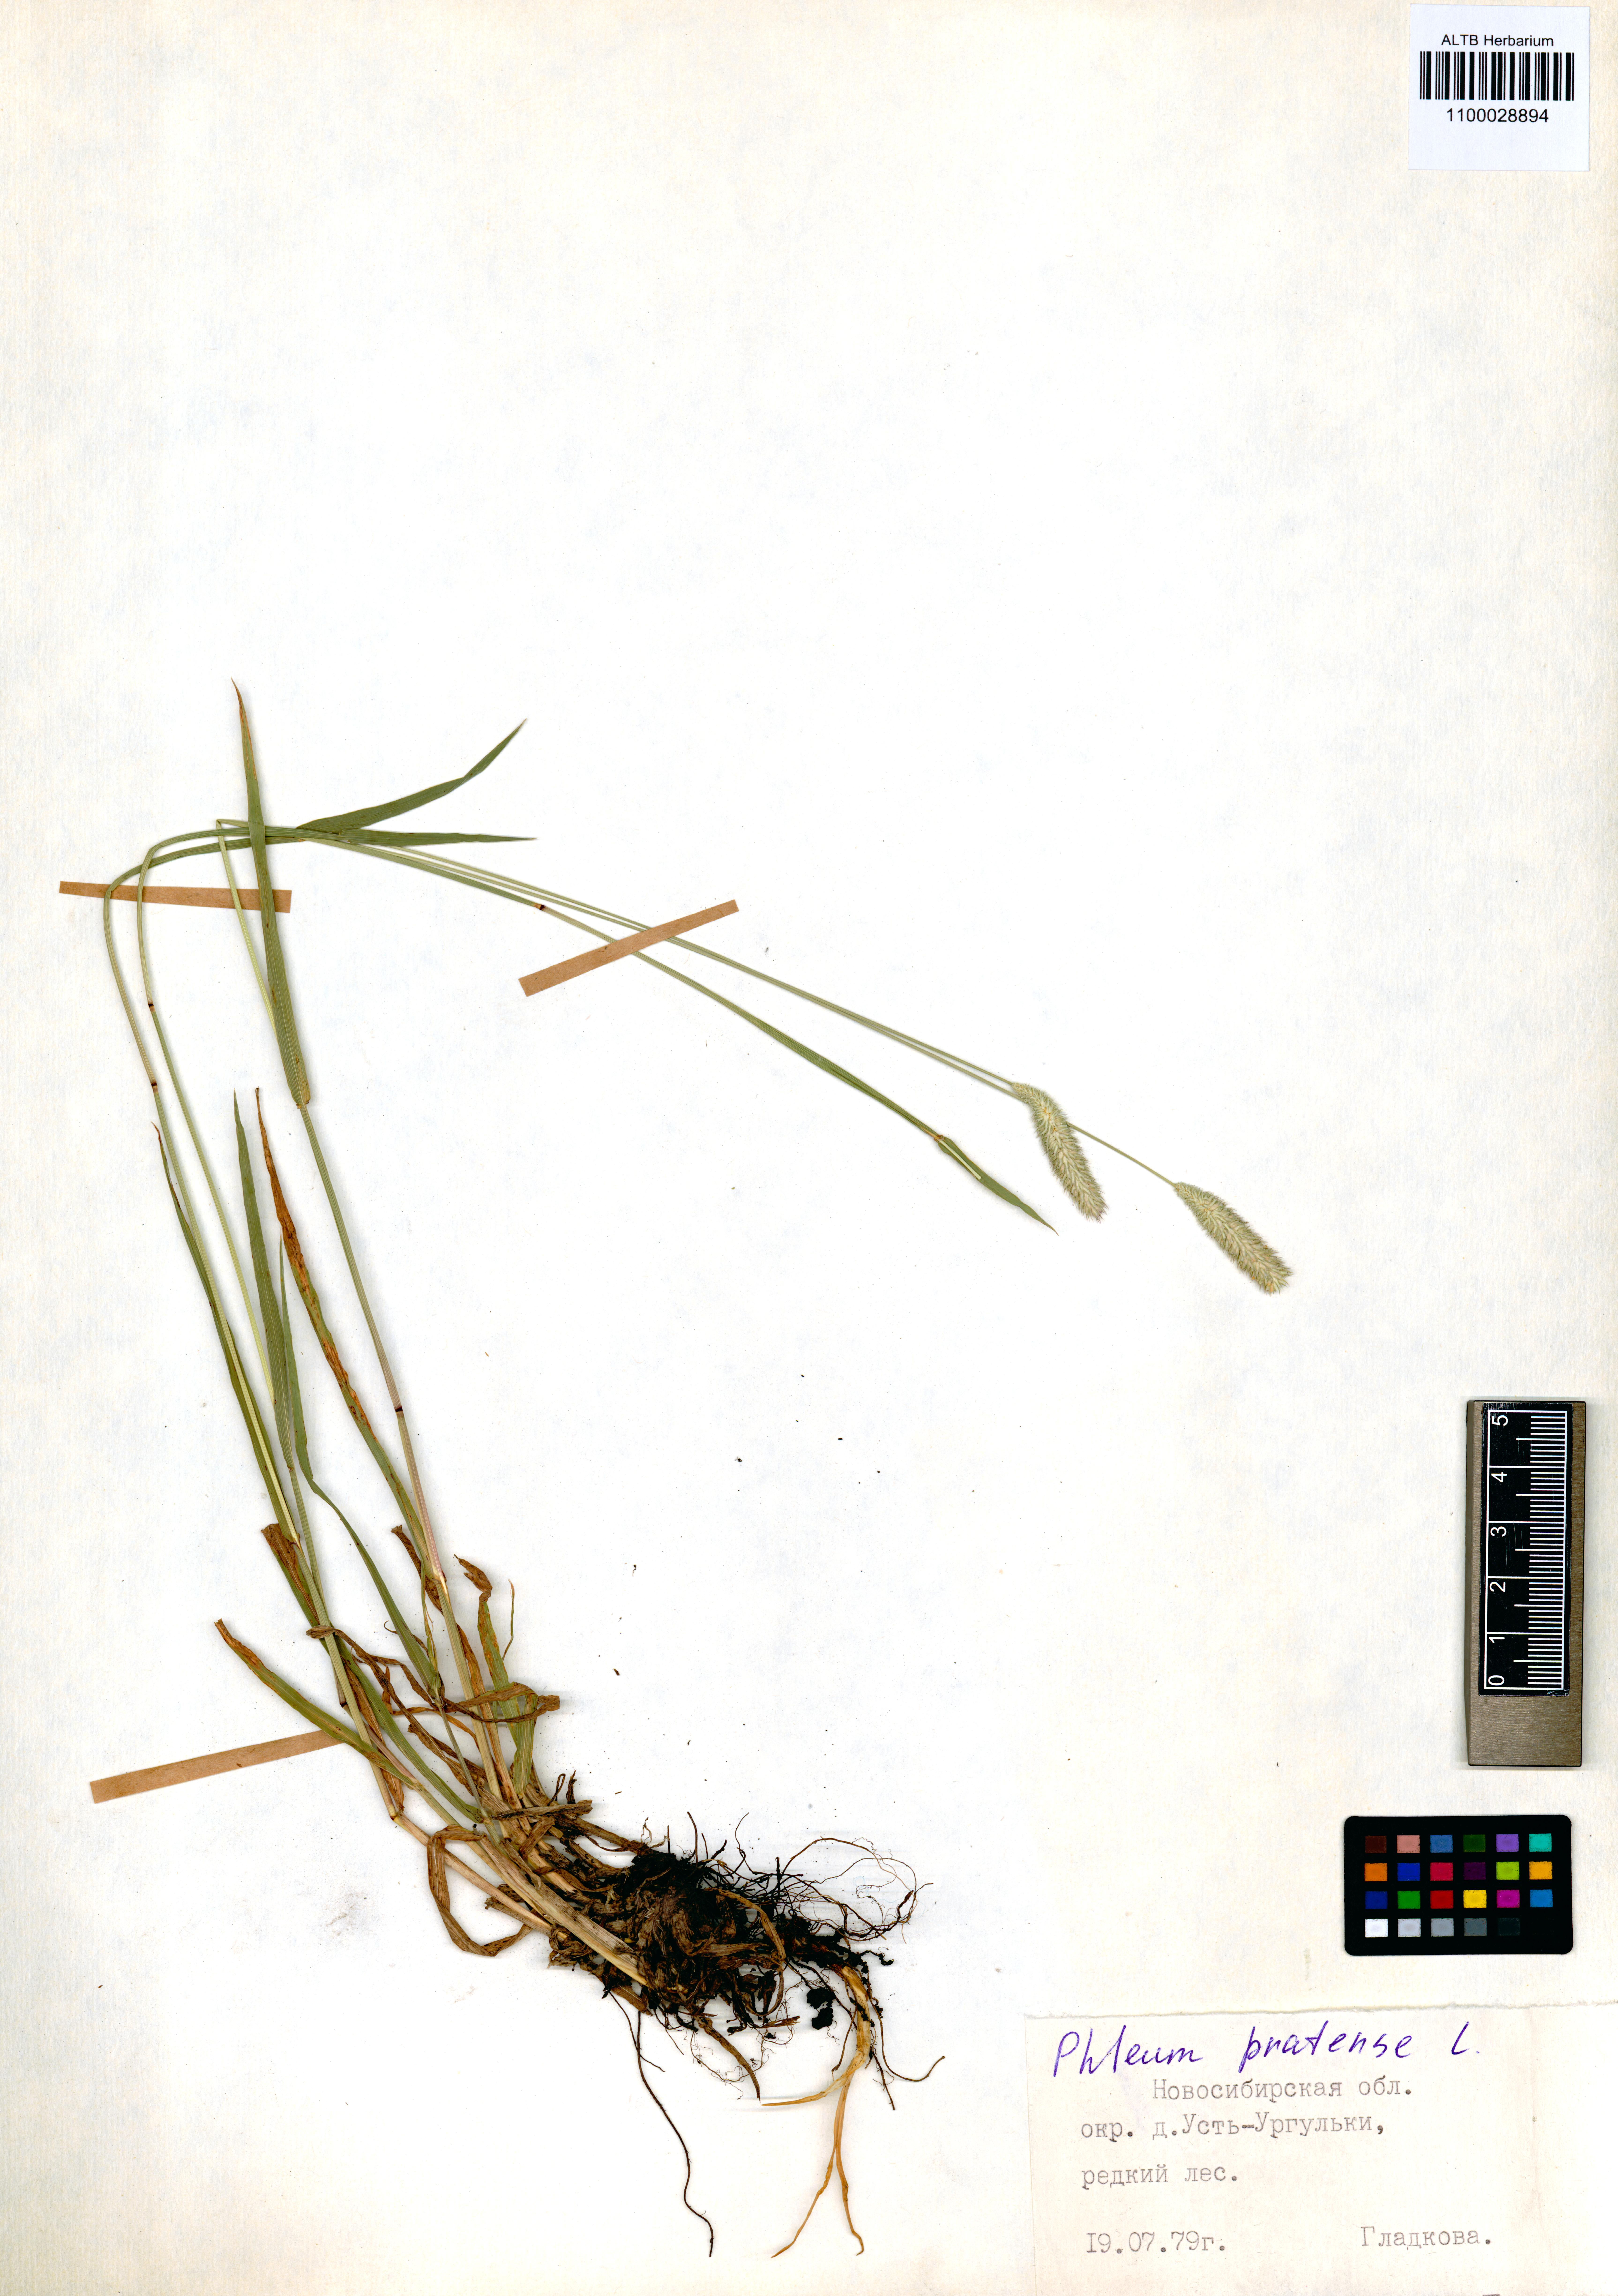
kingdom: Plantae
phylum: Tracheophyta
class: Liliopsida
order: Poales
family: Poaceae
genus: Phleum
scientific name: Phleum pratense
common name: Timothy grass
